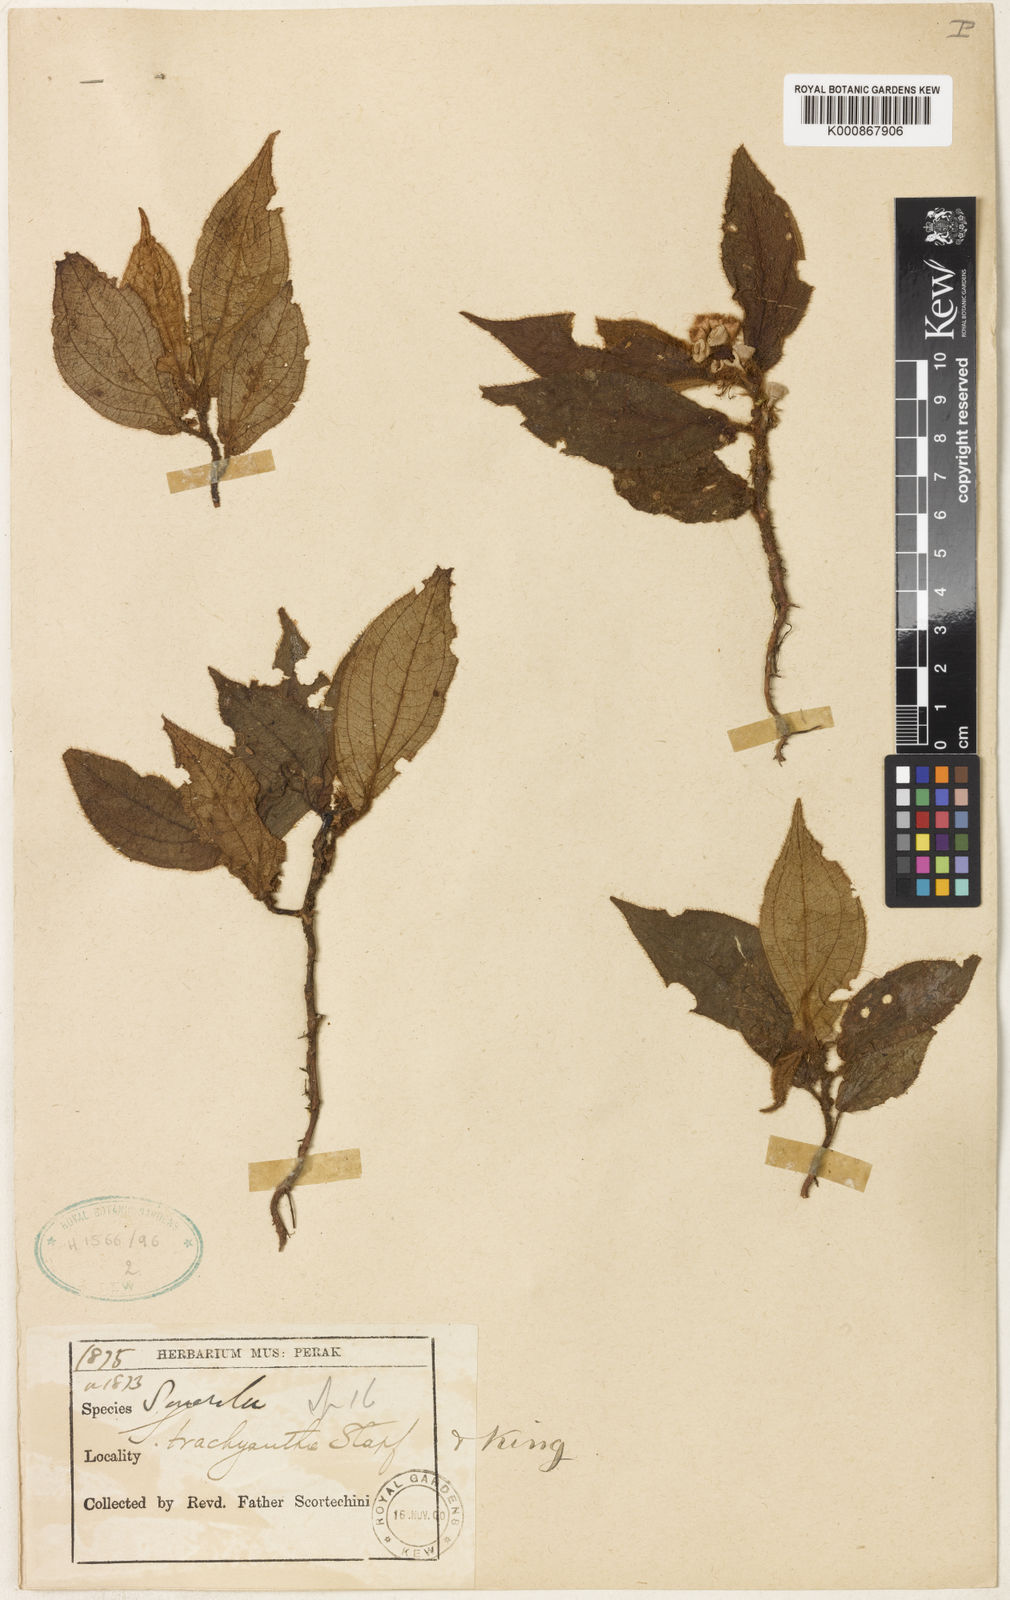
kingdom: Plantae
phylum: Tracheophyta
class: Magnoliopsida
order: Myrtales
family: Melastomataceae
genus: Sonerila
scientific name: Sonerila moluccana
